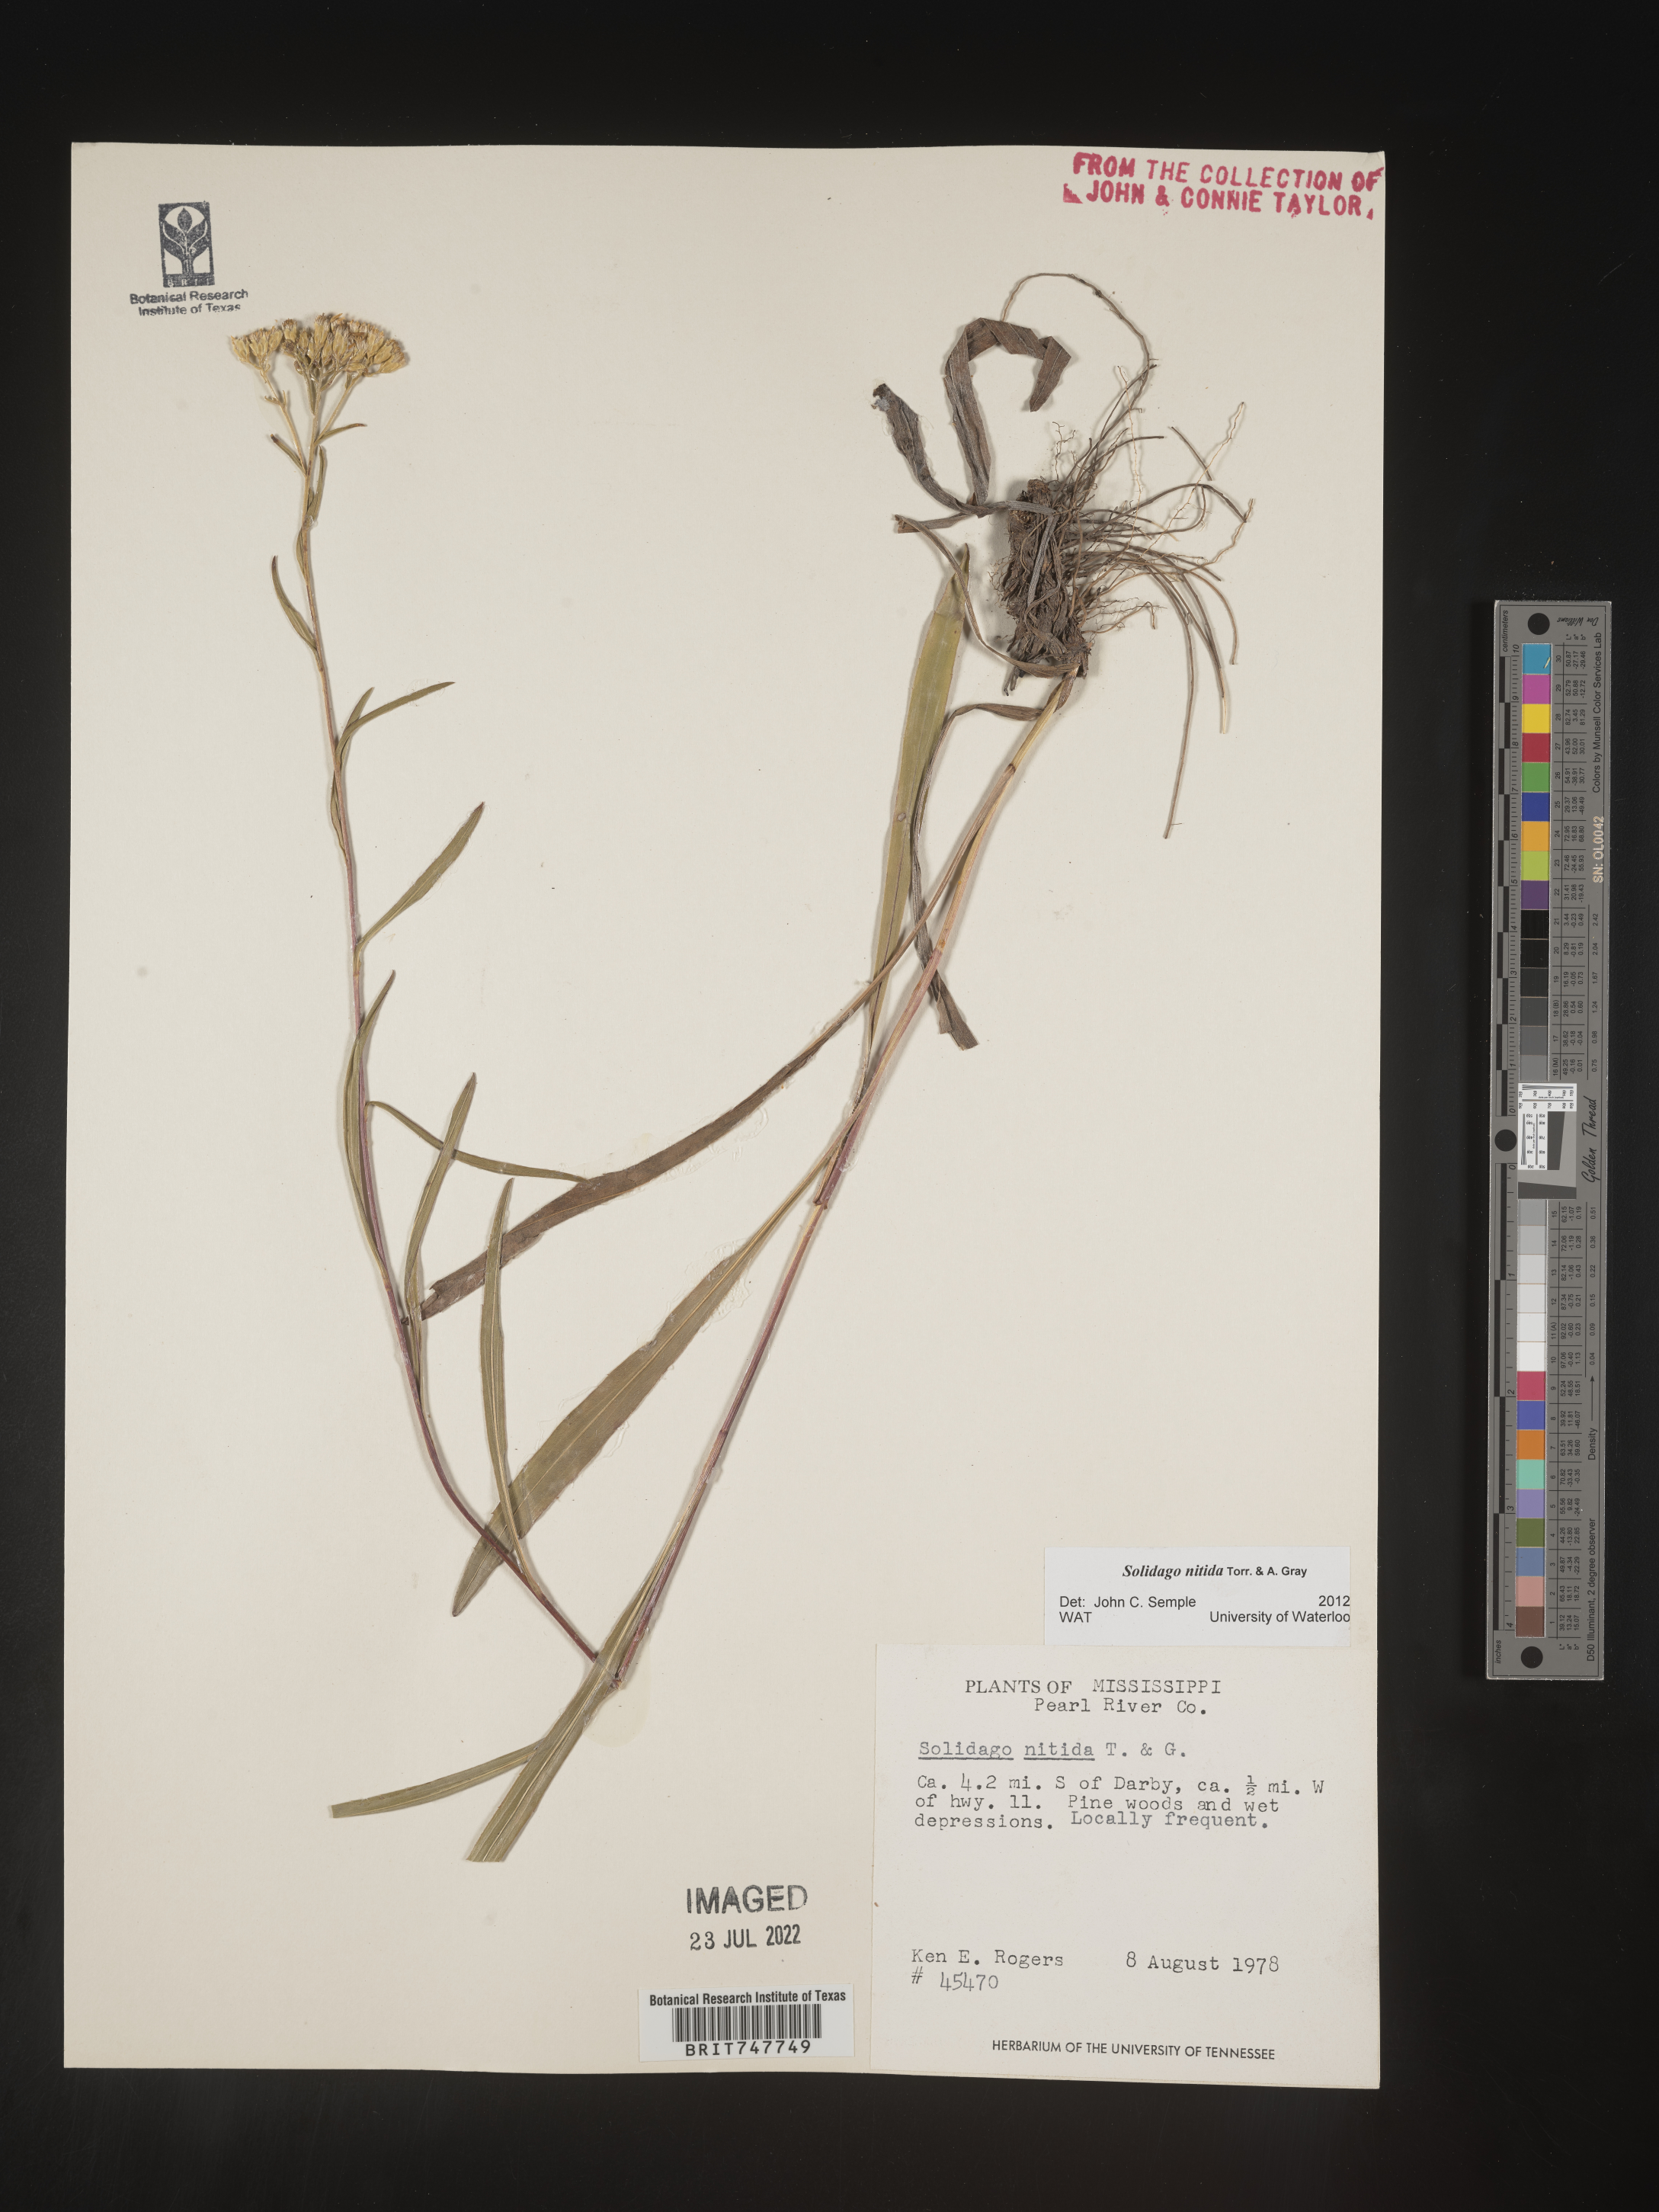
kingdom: Plantae
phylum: Tracheophyta
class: Magnoliopsida
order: Asterales
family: Asteraceae
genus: Solidago
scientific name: Solidago nitida
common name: Shiny goldenrod
